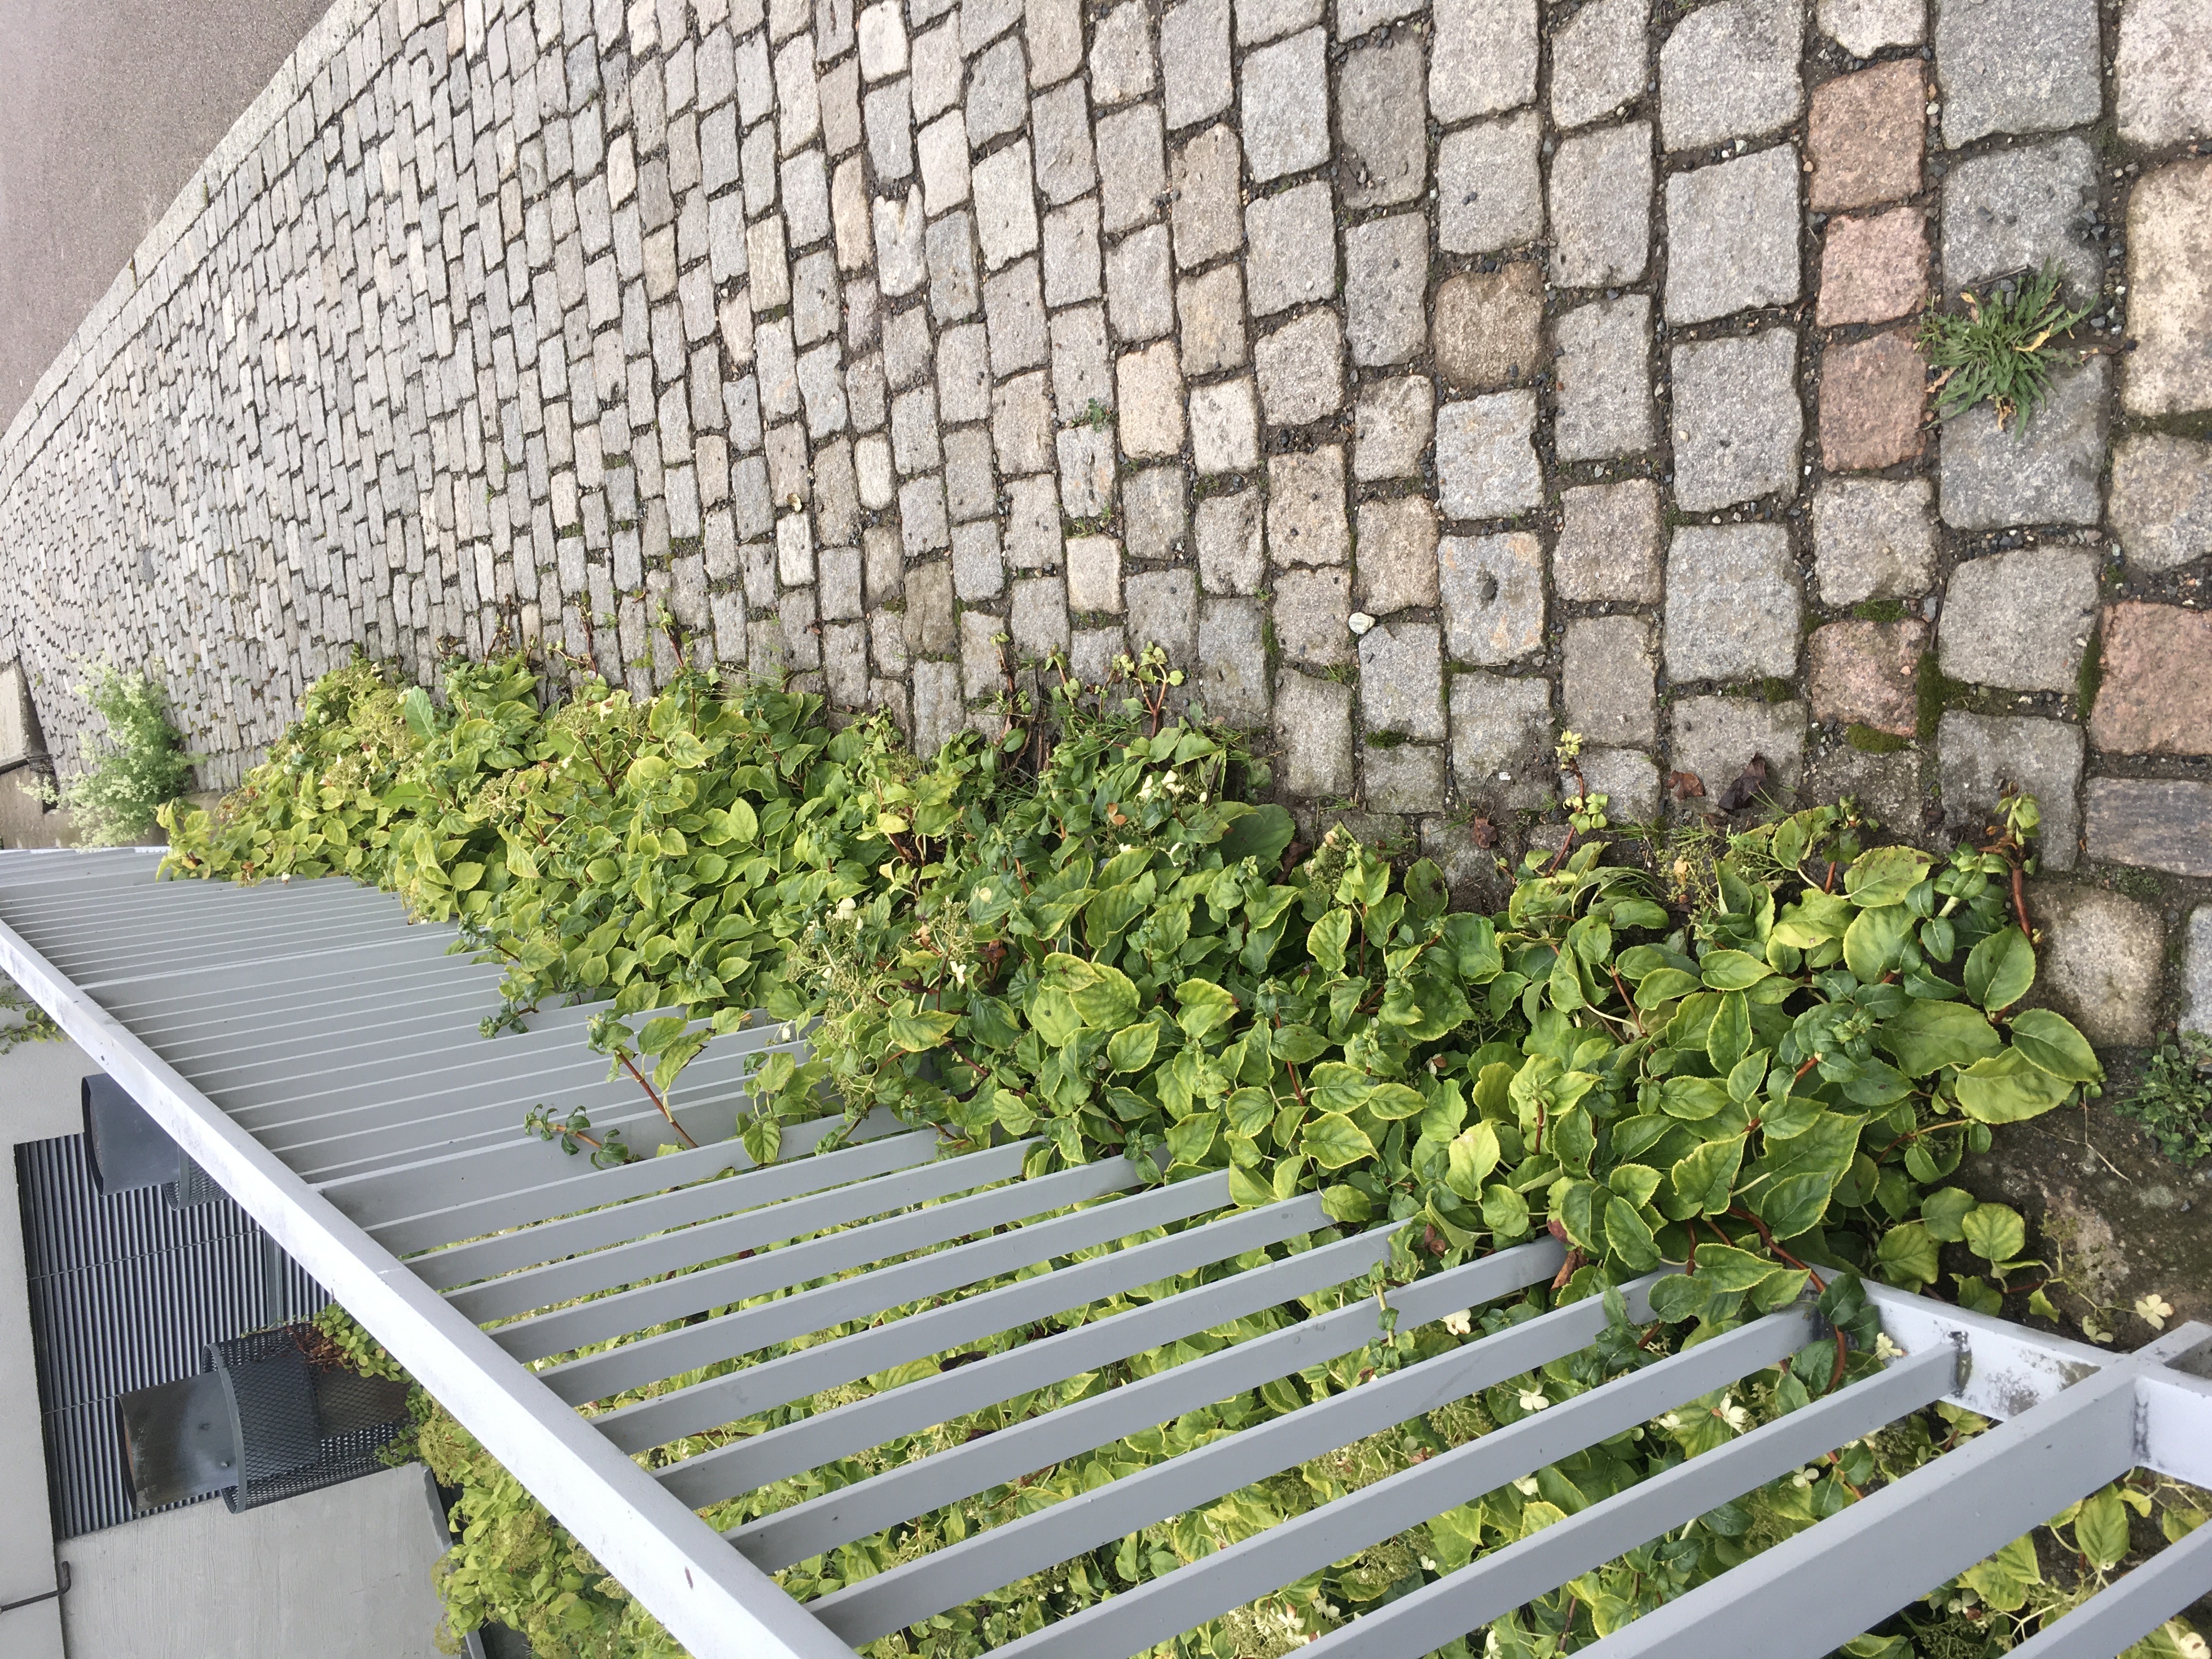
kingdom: Plantae
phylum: Tracheophyta
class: Magnoliopsida
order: Cornales
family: Hydrangeaceae
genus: Hydrangea
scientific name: Hydrangea petiolaris
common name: klatrehortensia
